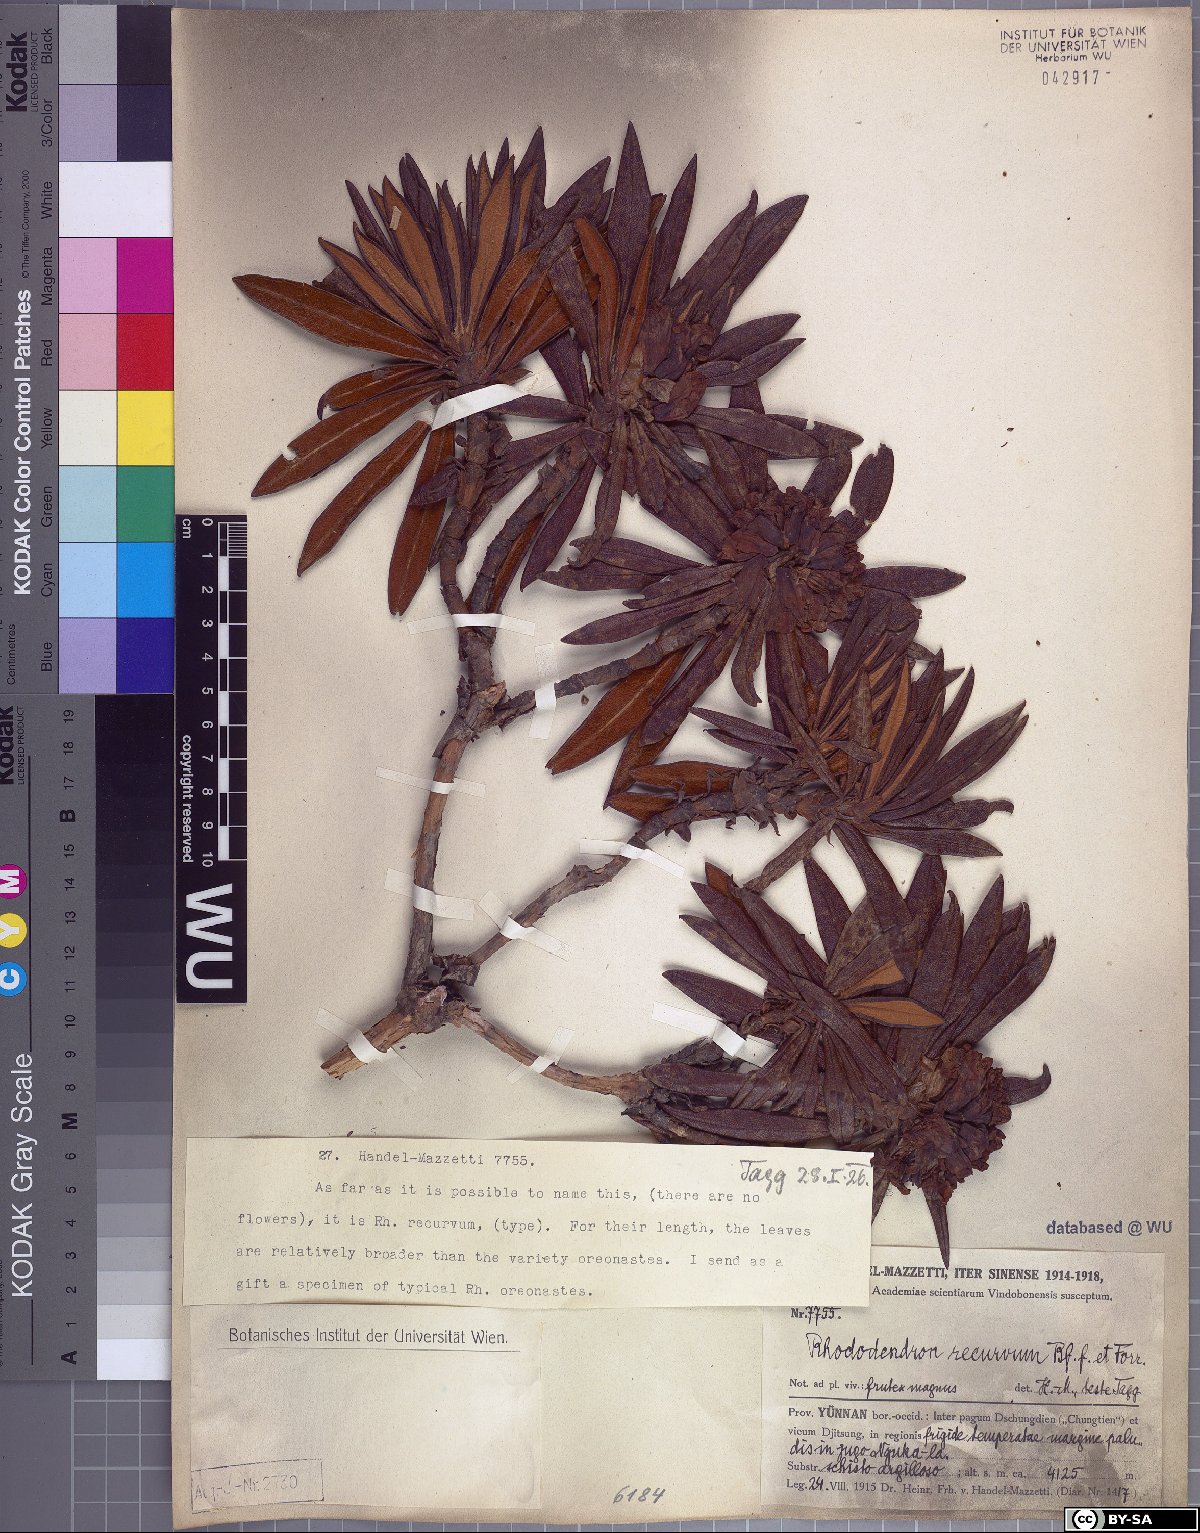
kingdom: Plantae
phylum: Tracheophyta
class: Magnoliopsida
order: Ericales
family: Ericaceae
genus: Rhododendron
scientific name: Rhododendron roxieanum
